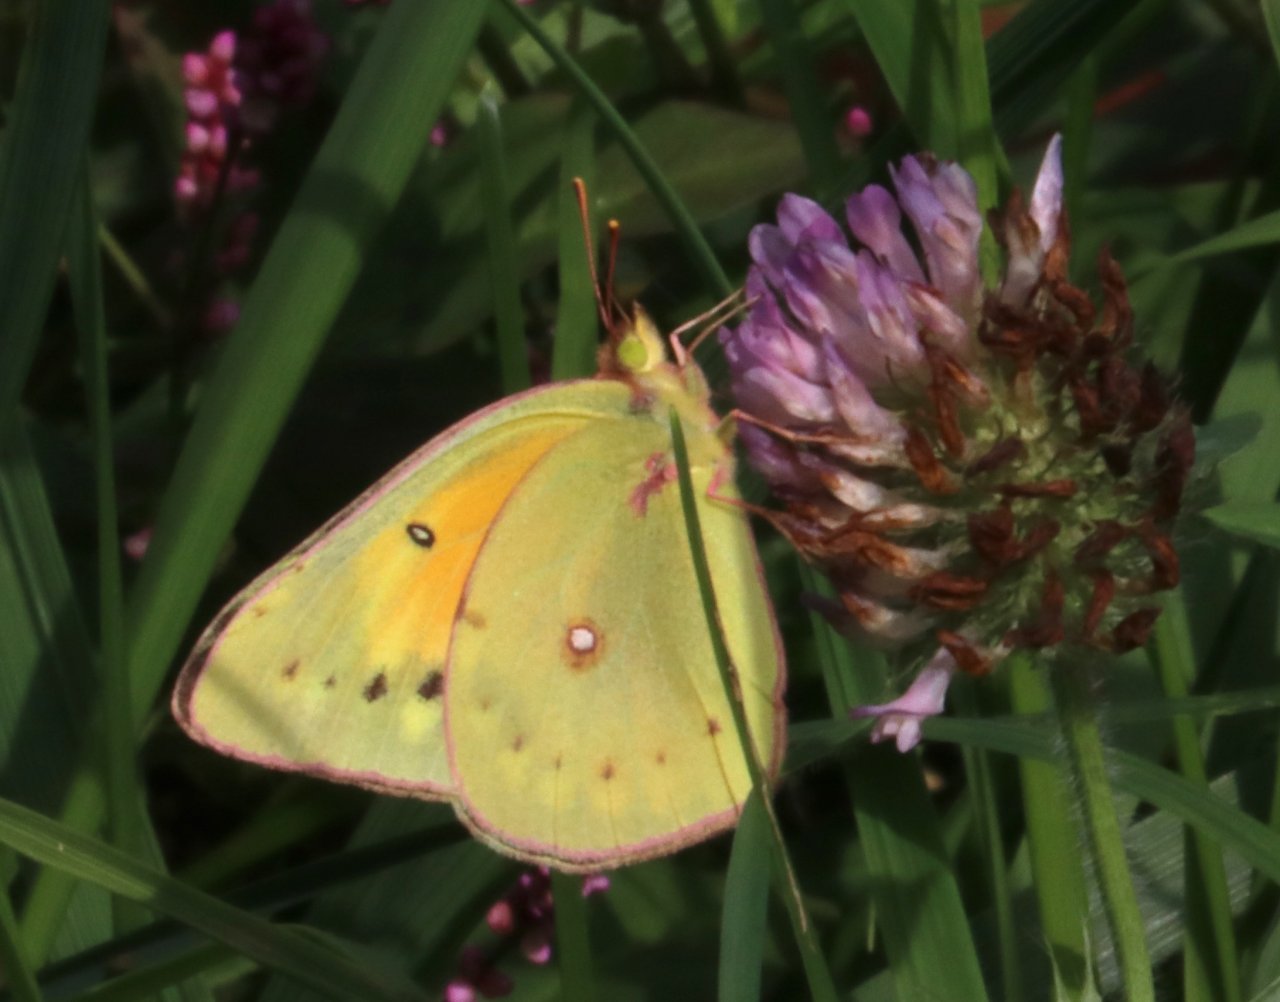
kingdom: Animalia
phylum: Arthropoda
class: Insecta
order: Lepidoptera
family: Pieridae
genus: Colias
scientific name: Colias eurytheme
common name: Orange Sulphur
